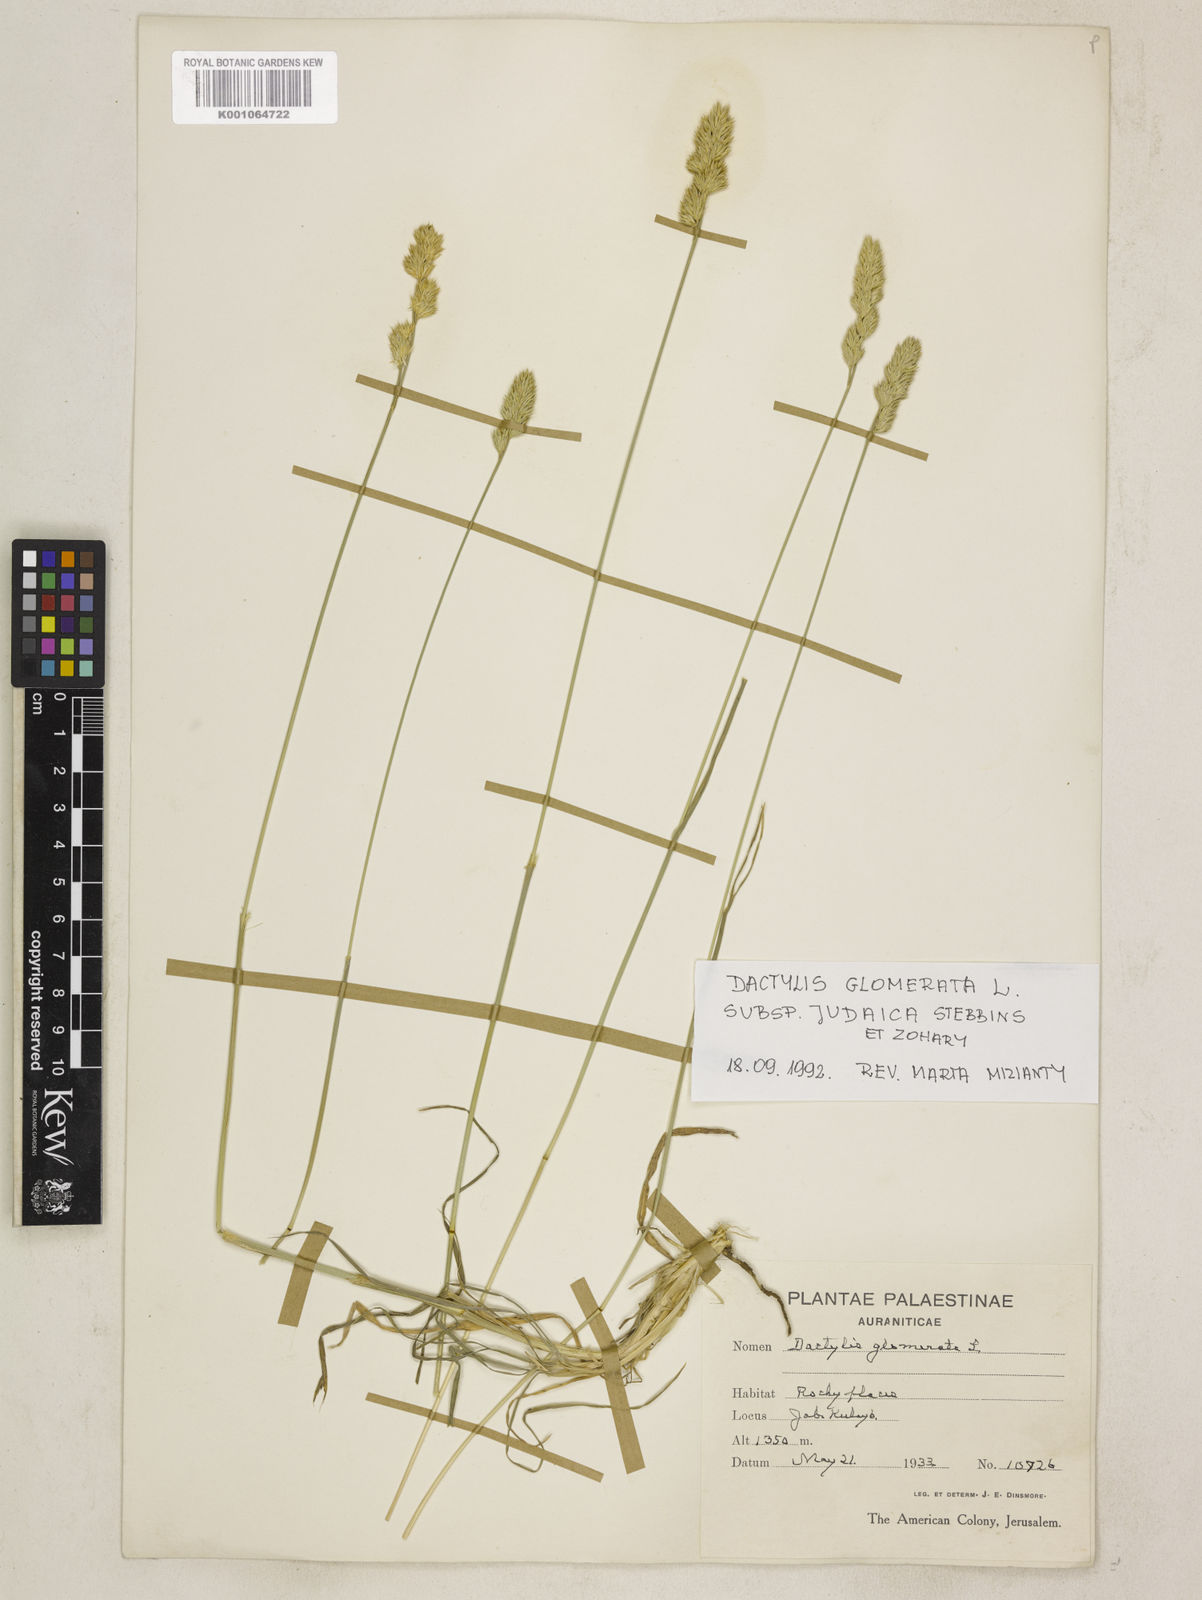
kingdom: Plantae
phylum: Tracheophyta
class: Liliopsida
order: Poales
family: Poaceae
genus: Dactylis
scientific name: Dactylis glomerata
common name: Orchardgrass
